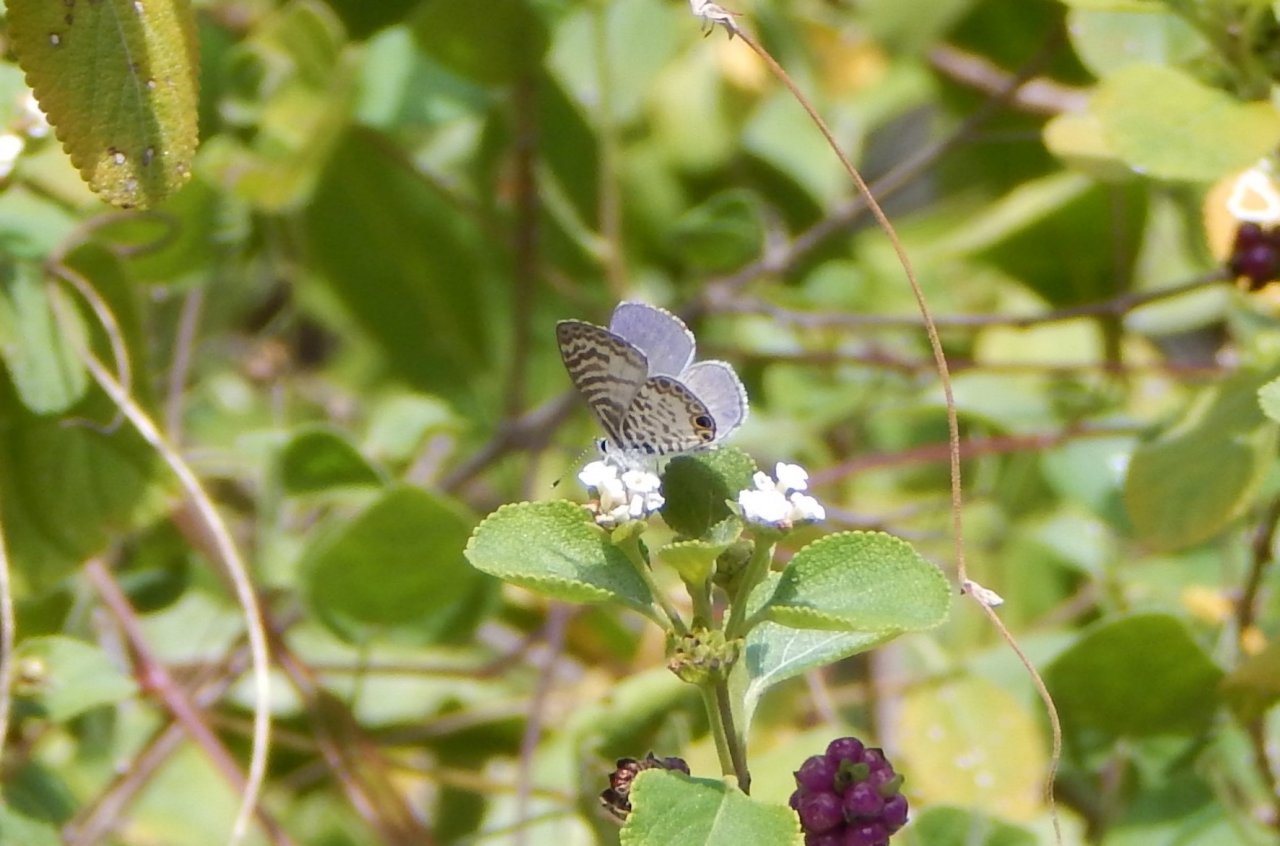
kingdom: Animalia
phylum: Arthropoda
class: Insecta
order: Lepidoptera
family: Lycaenidae
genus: Leptotes
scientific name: Leptotes cassius
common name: Cassius Blue
